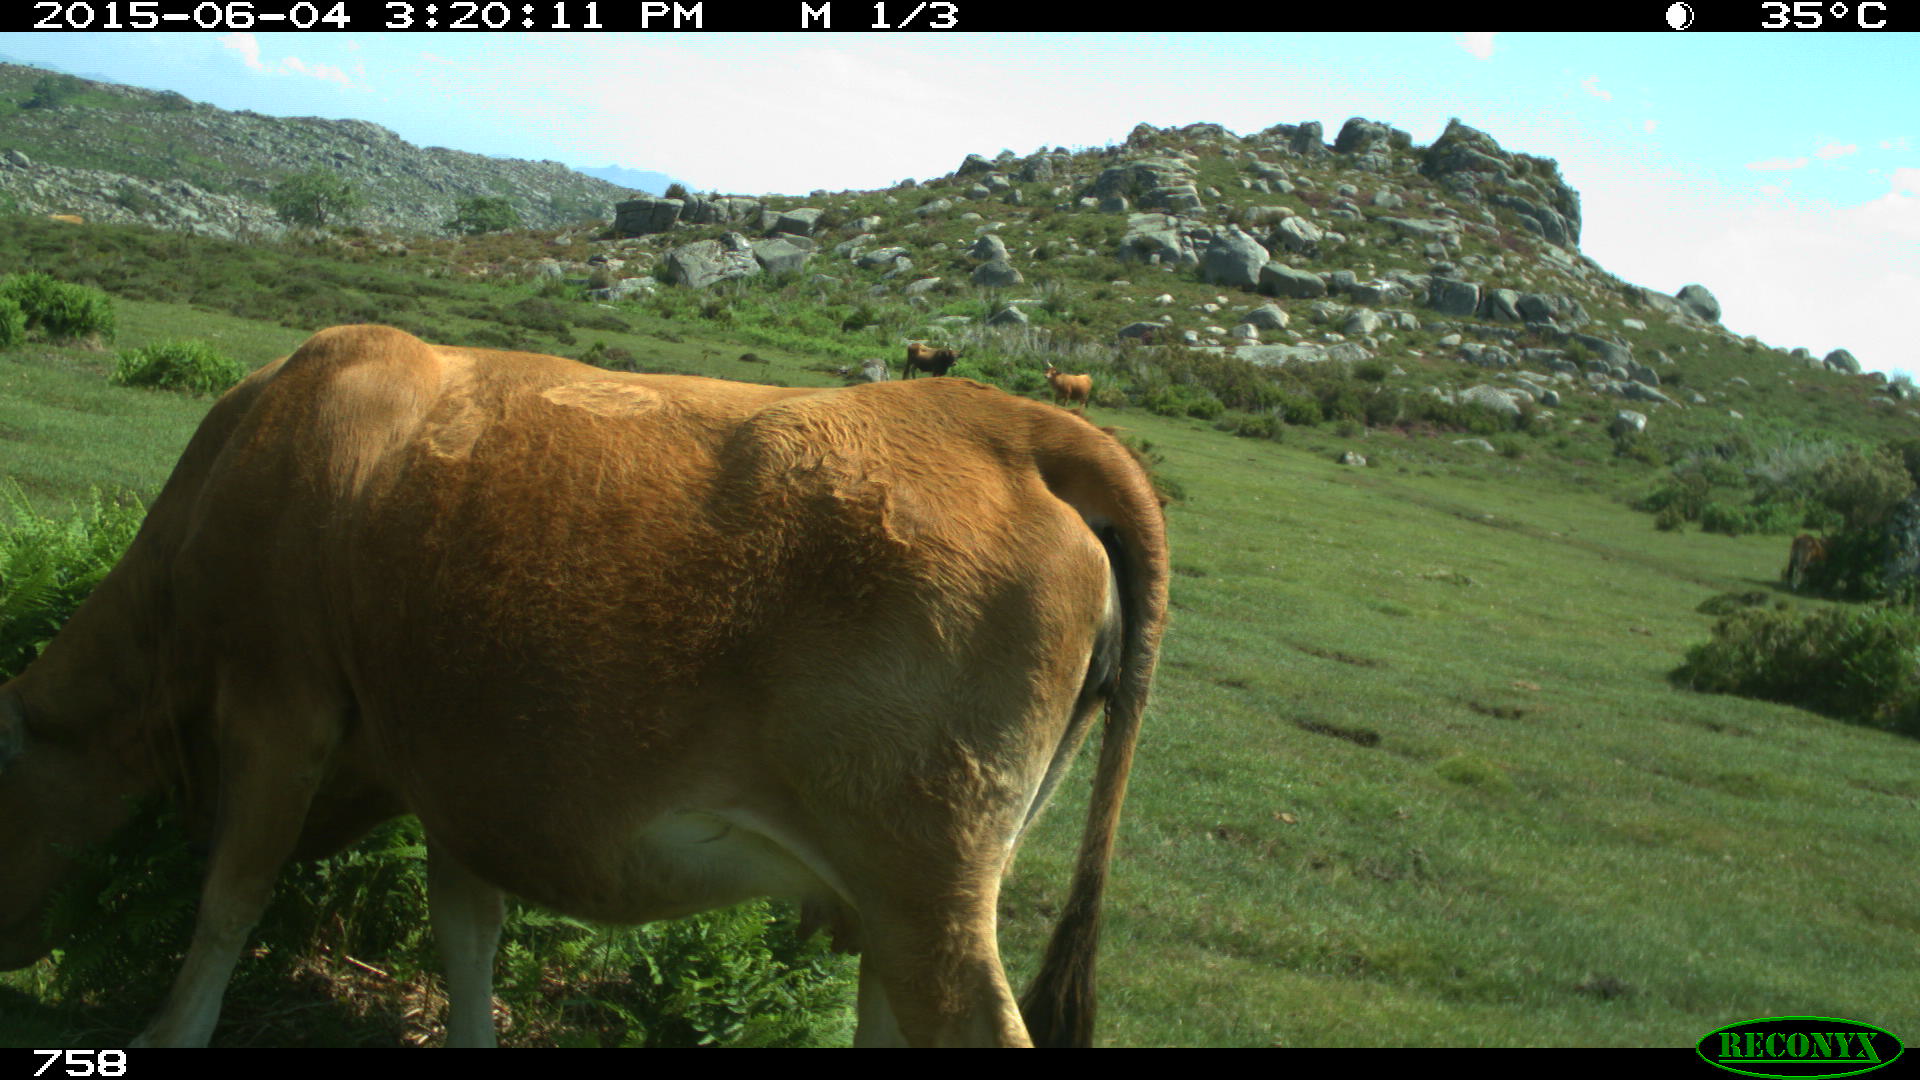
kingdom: Animalia
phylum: Chordata
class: Mammalia
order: Artiodactyla
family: Bovidae
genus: Bos
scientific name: Bos taurus
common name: Domesticated cattle
